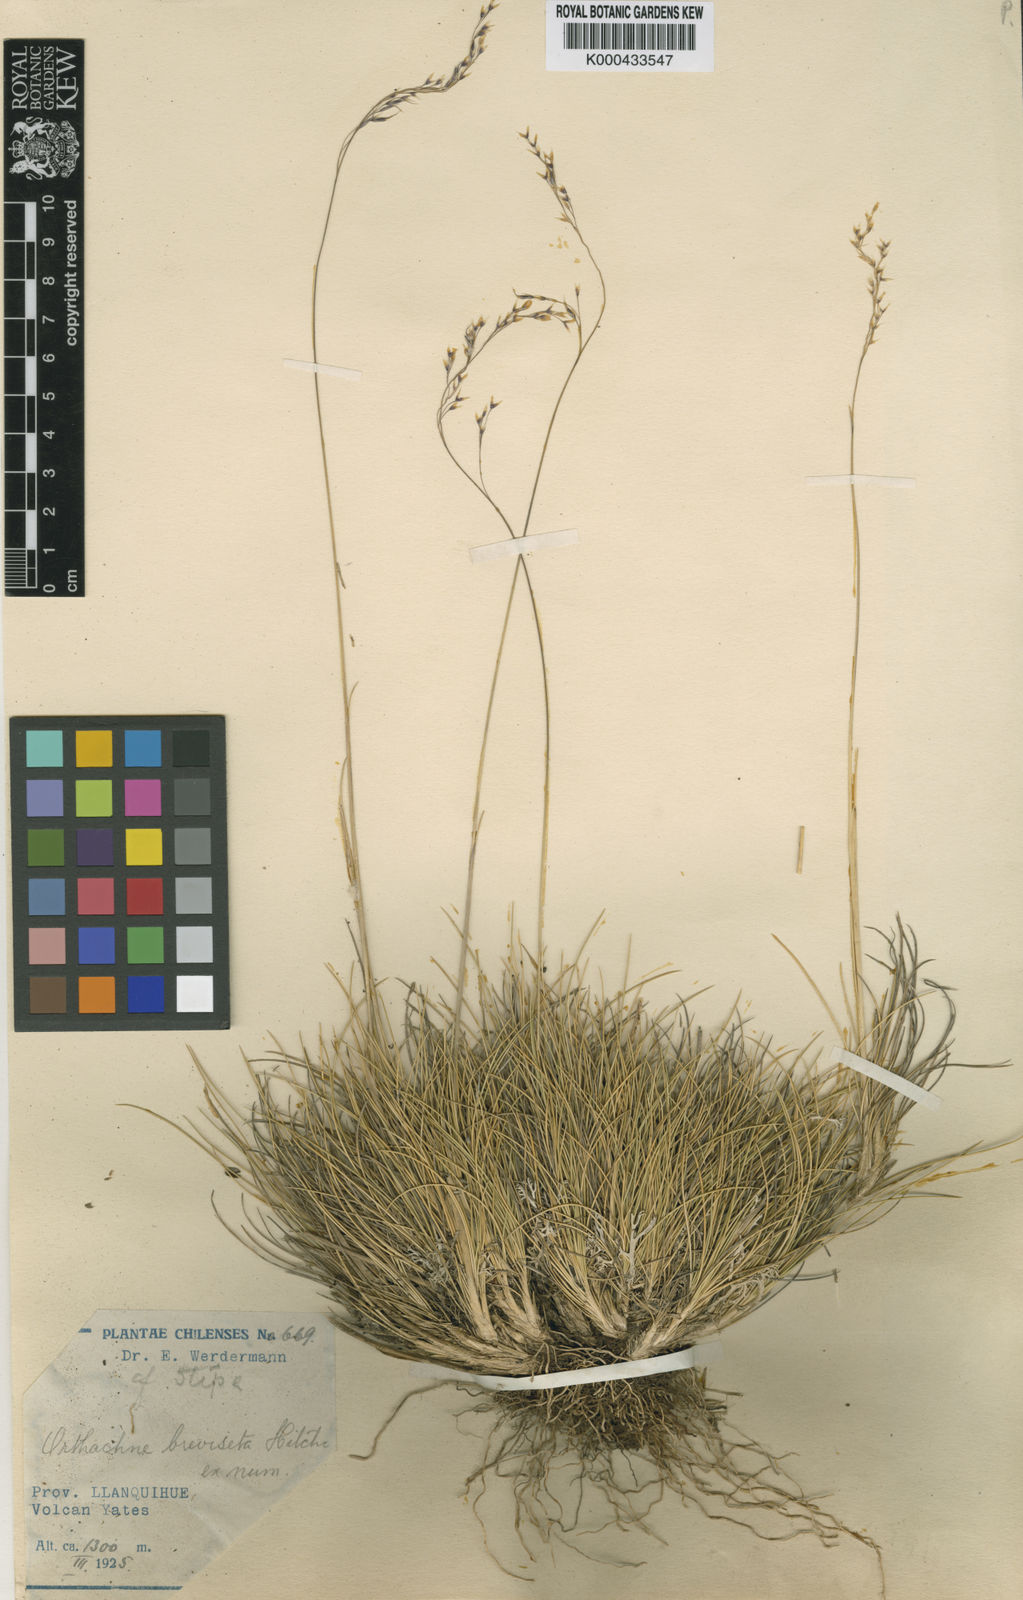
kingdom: Plantae
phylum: Tracheophyta
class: Liliopsida
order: Poales
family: Poaceae
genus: Ortachne
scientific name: Ortachne breviseta
